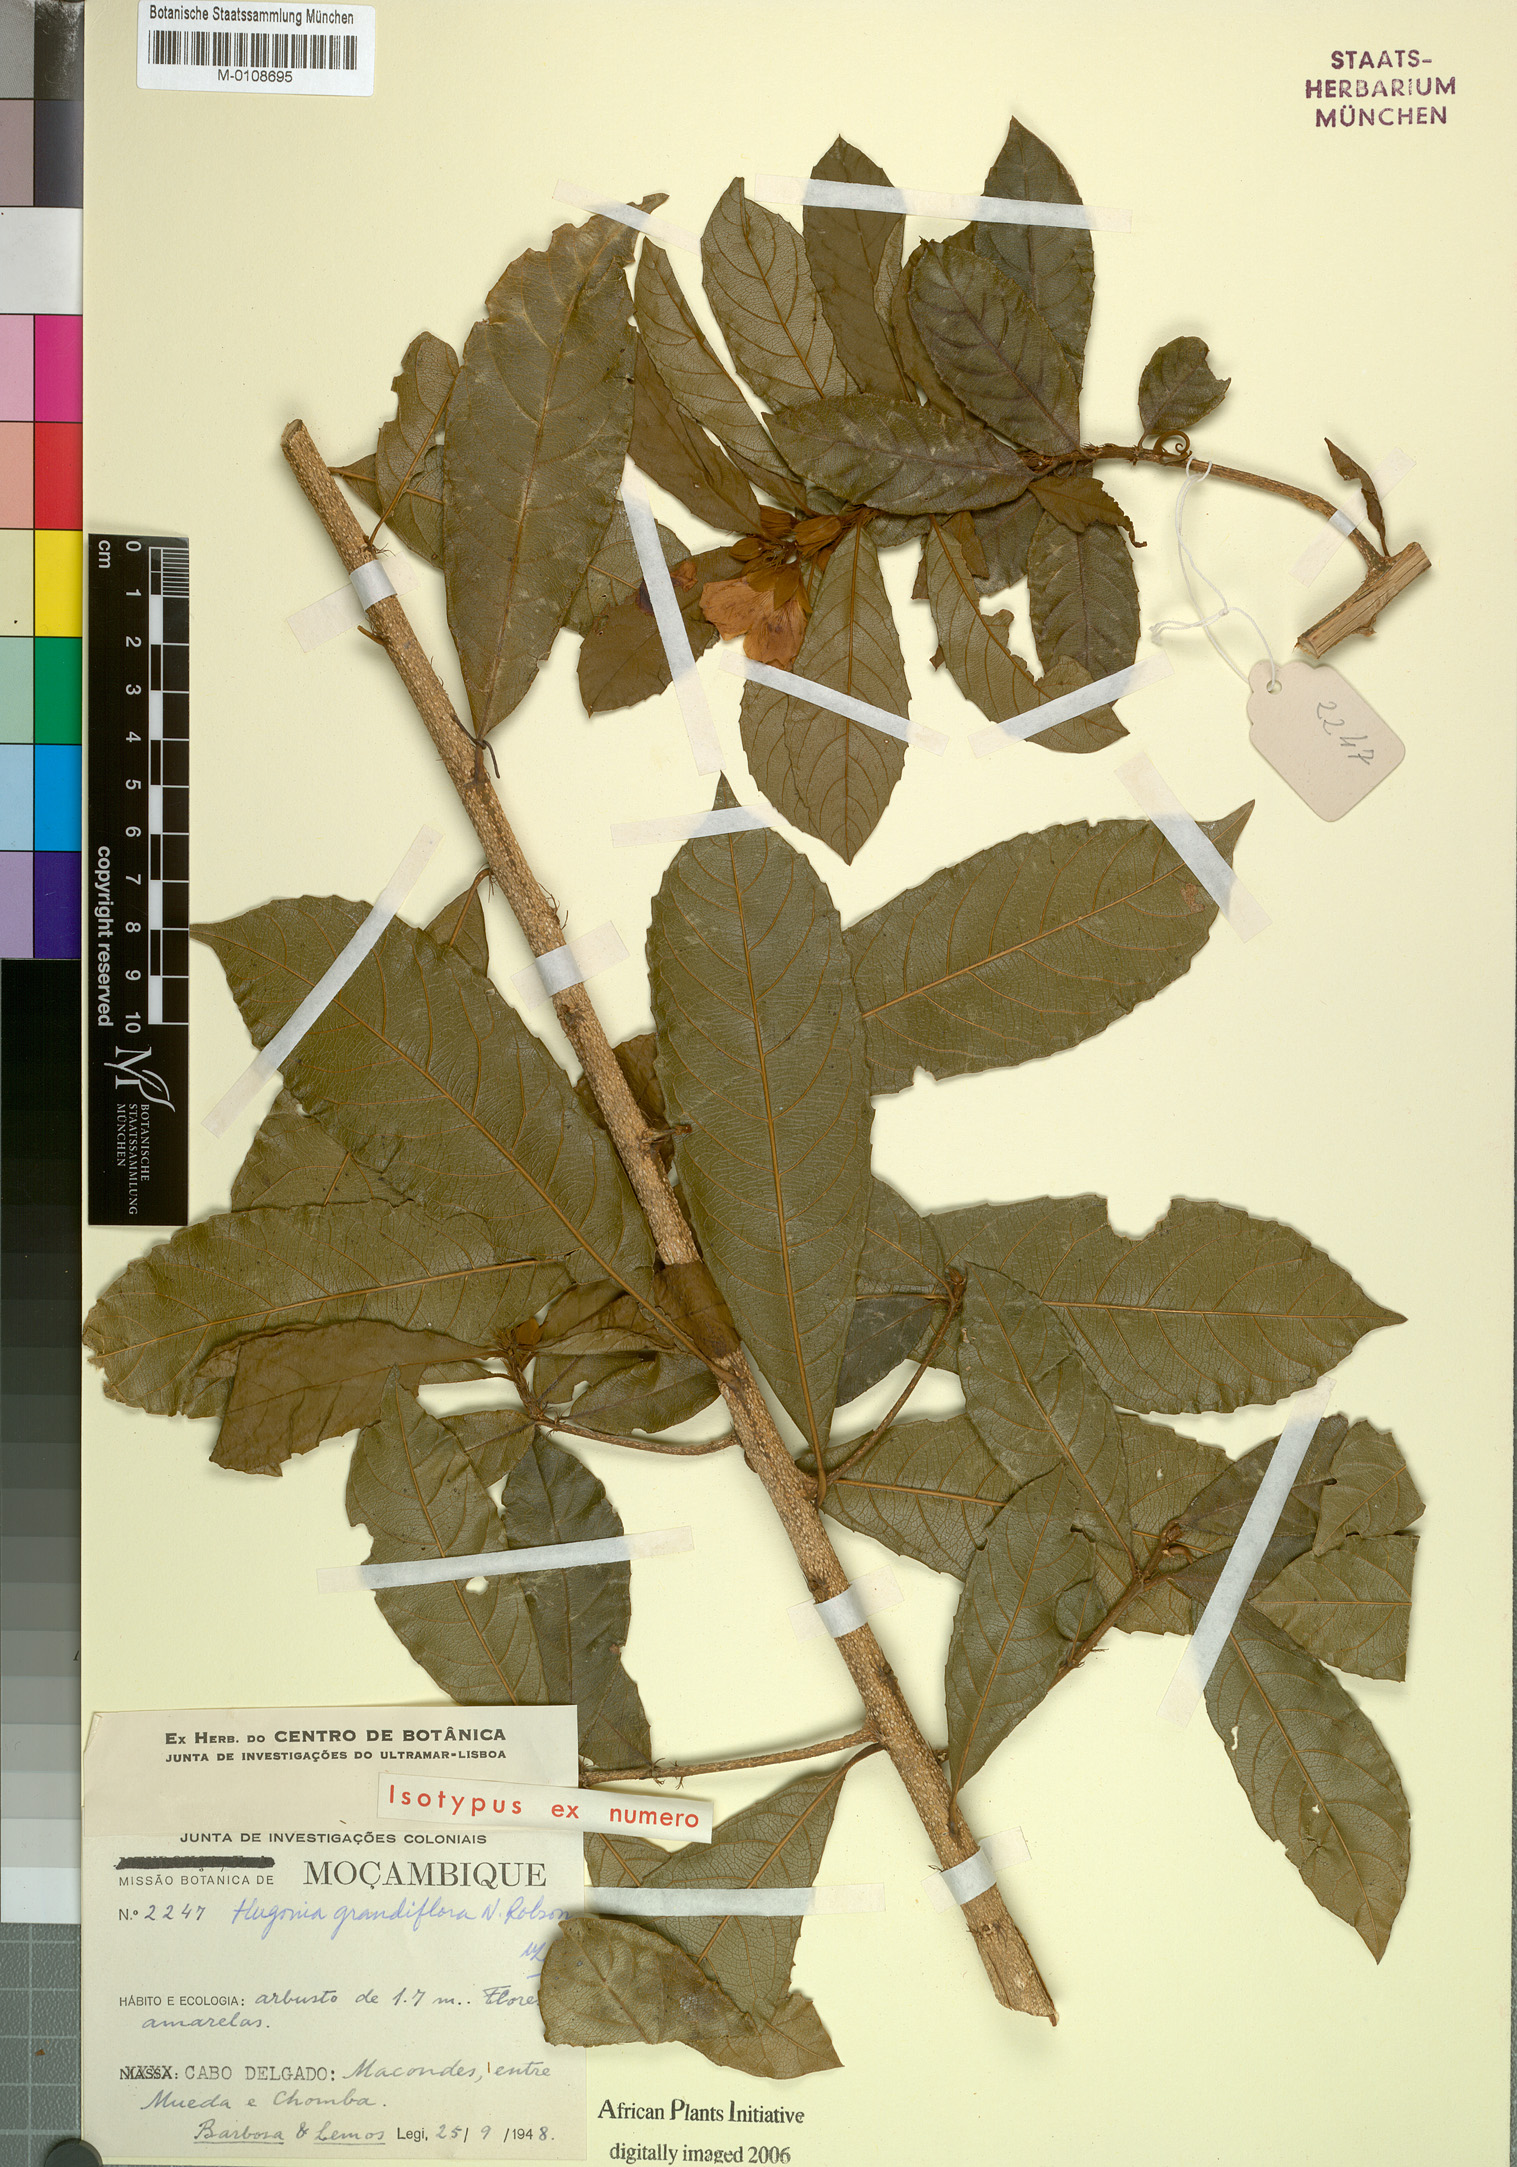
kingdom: Plantae
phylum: Tracheophyta
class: Magnoliopsida
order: Malpighiales
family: Linaceae
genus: Hugonia
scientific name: Hugonia grandiflora
